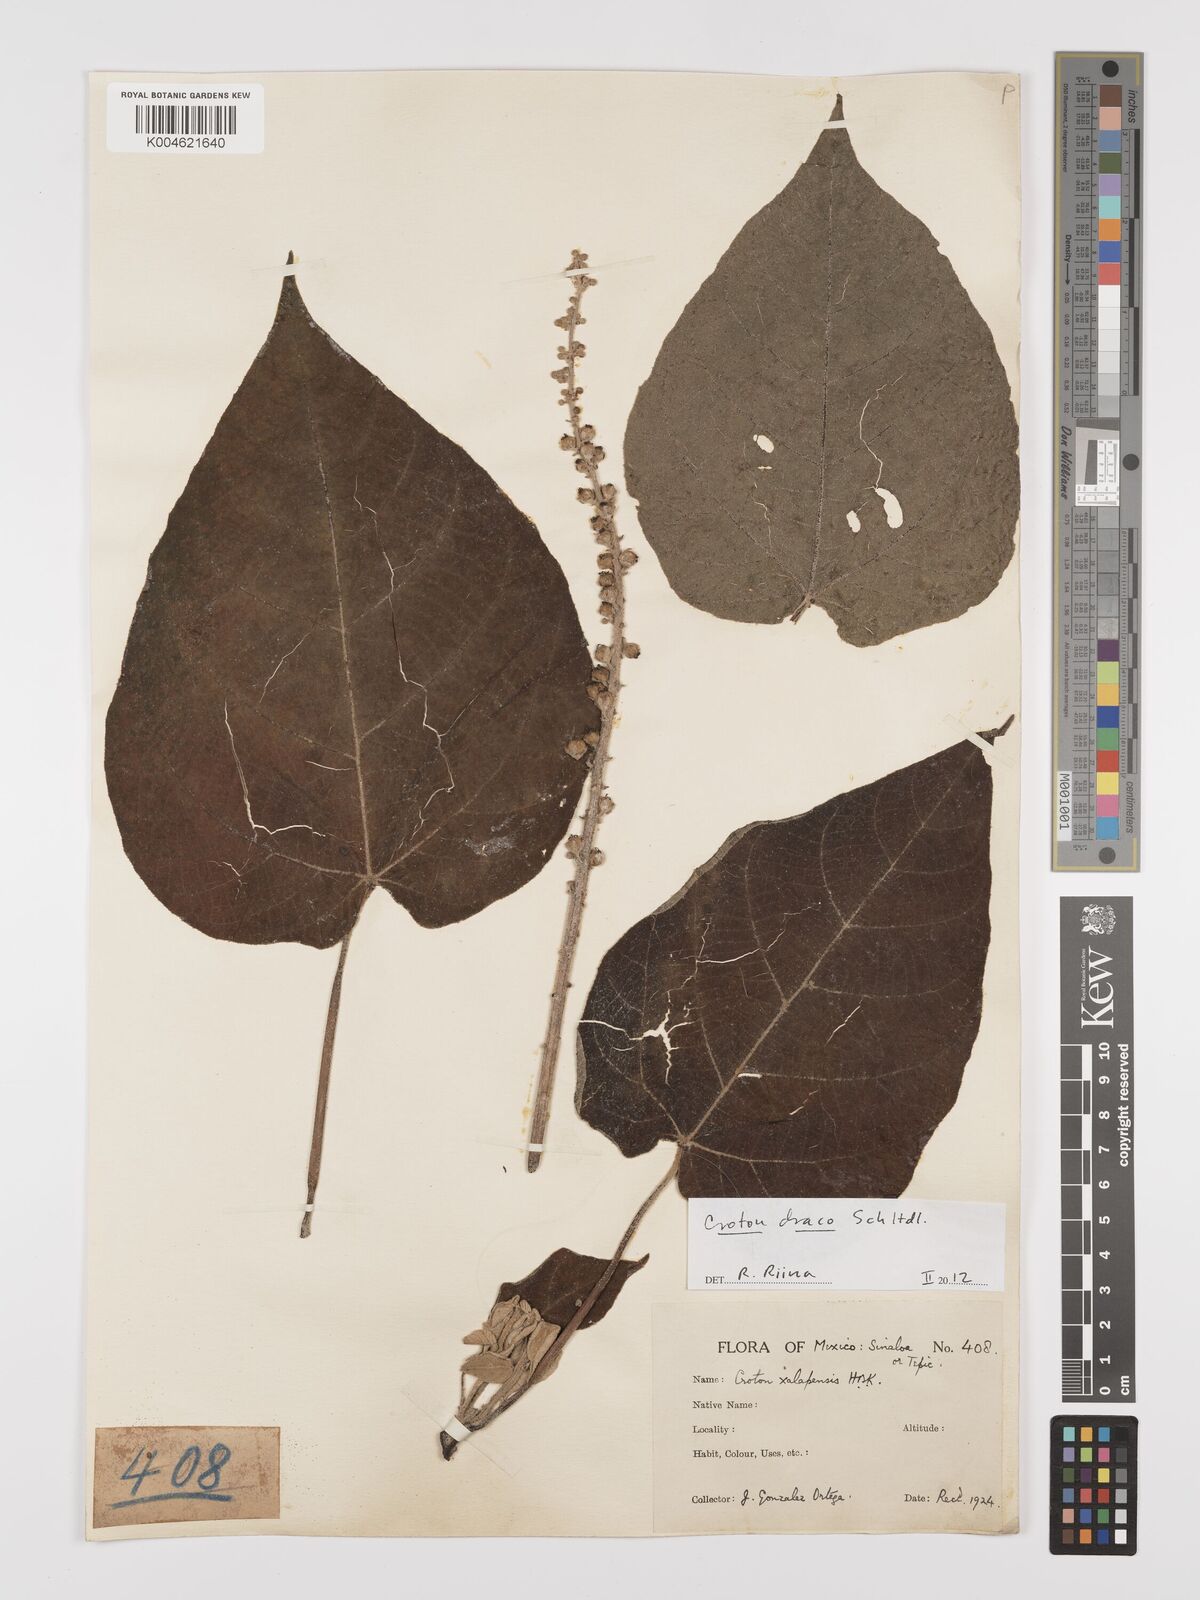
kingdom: Plantae
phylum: Tracheophyta
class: Magnoliopsida
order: Malpighiales
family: Euphorbiaceae
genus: Croton
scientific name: Croton draco
